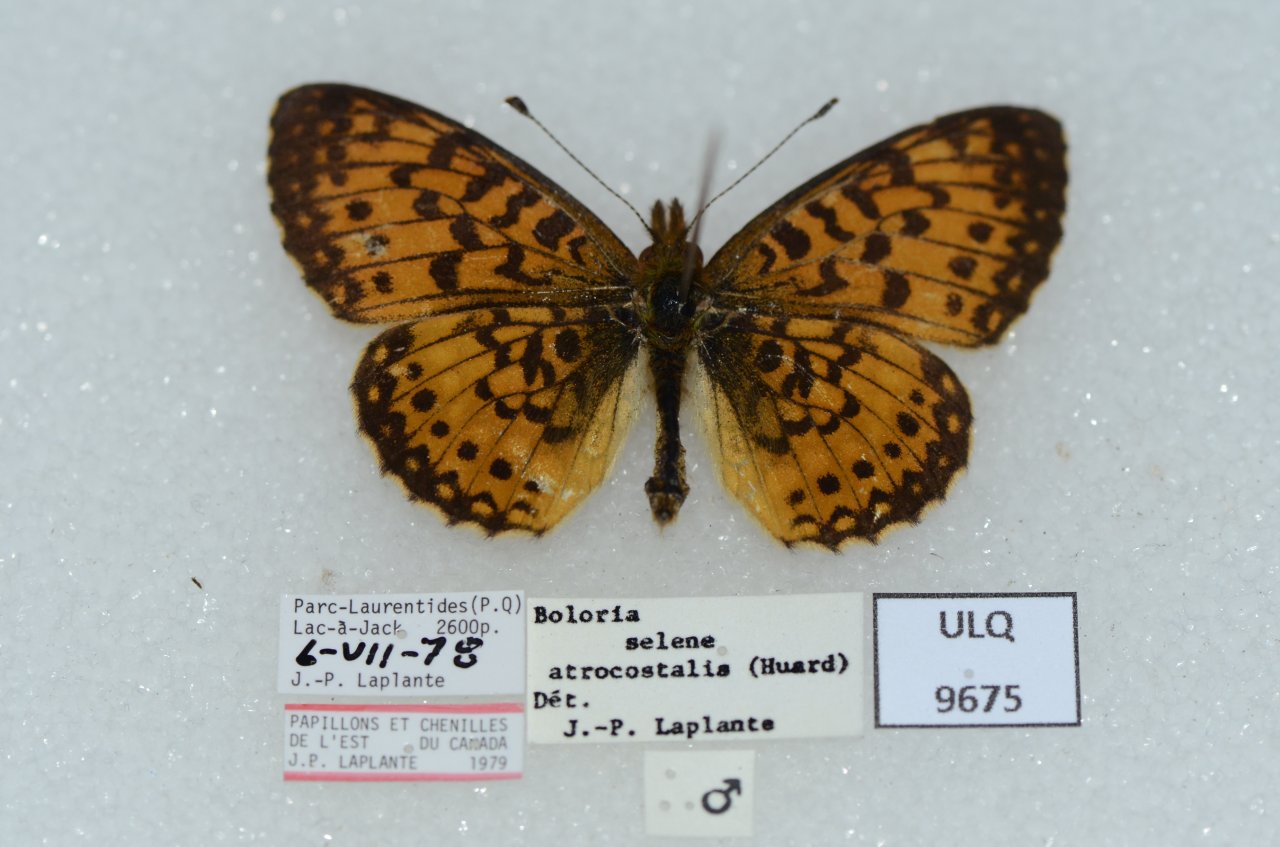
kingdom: Animalia
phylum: Arthropoda
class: Insecta
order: Lepidoptera
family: Nymphalidae
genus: Boloria
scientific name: Boloria selene
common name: Silver-bordered Fritillary
